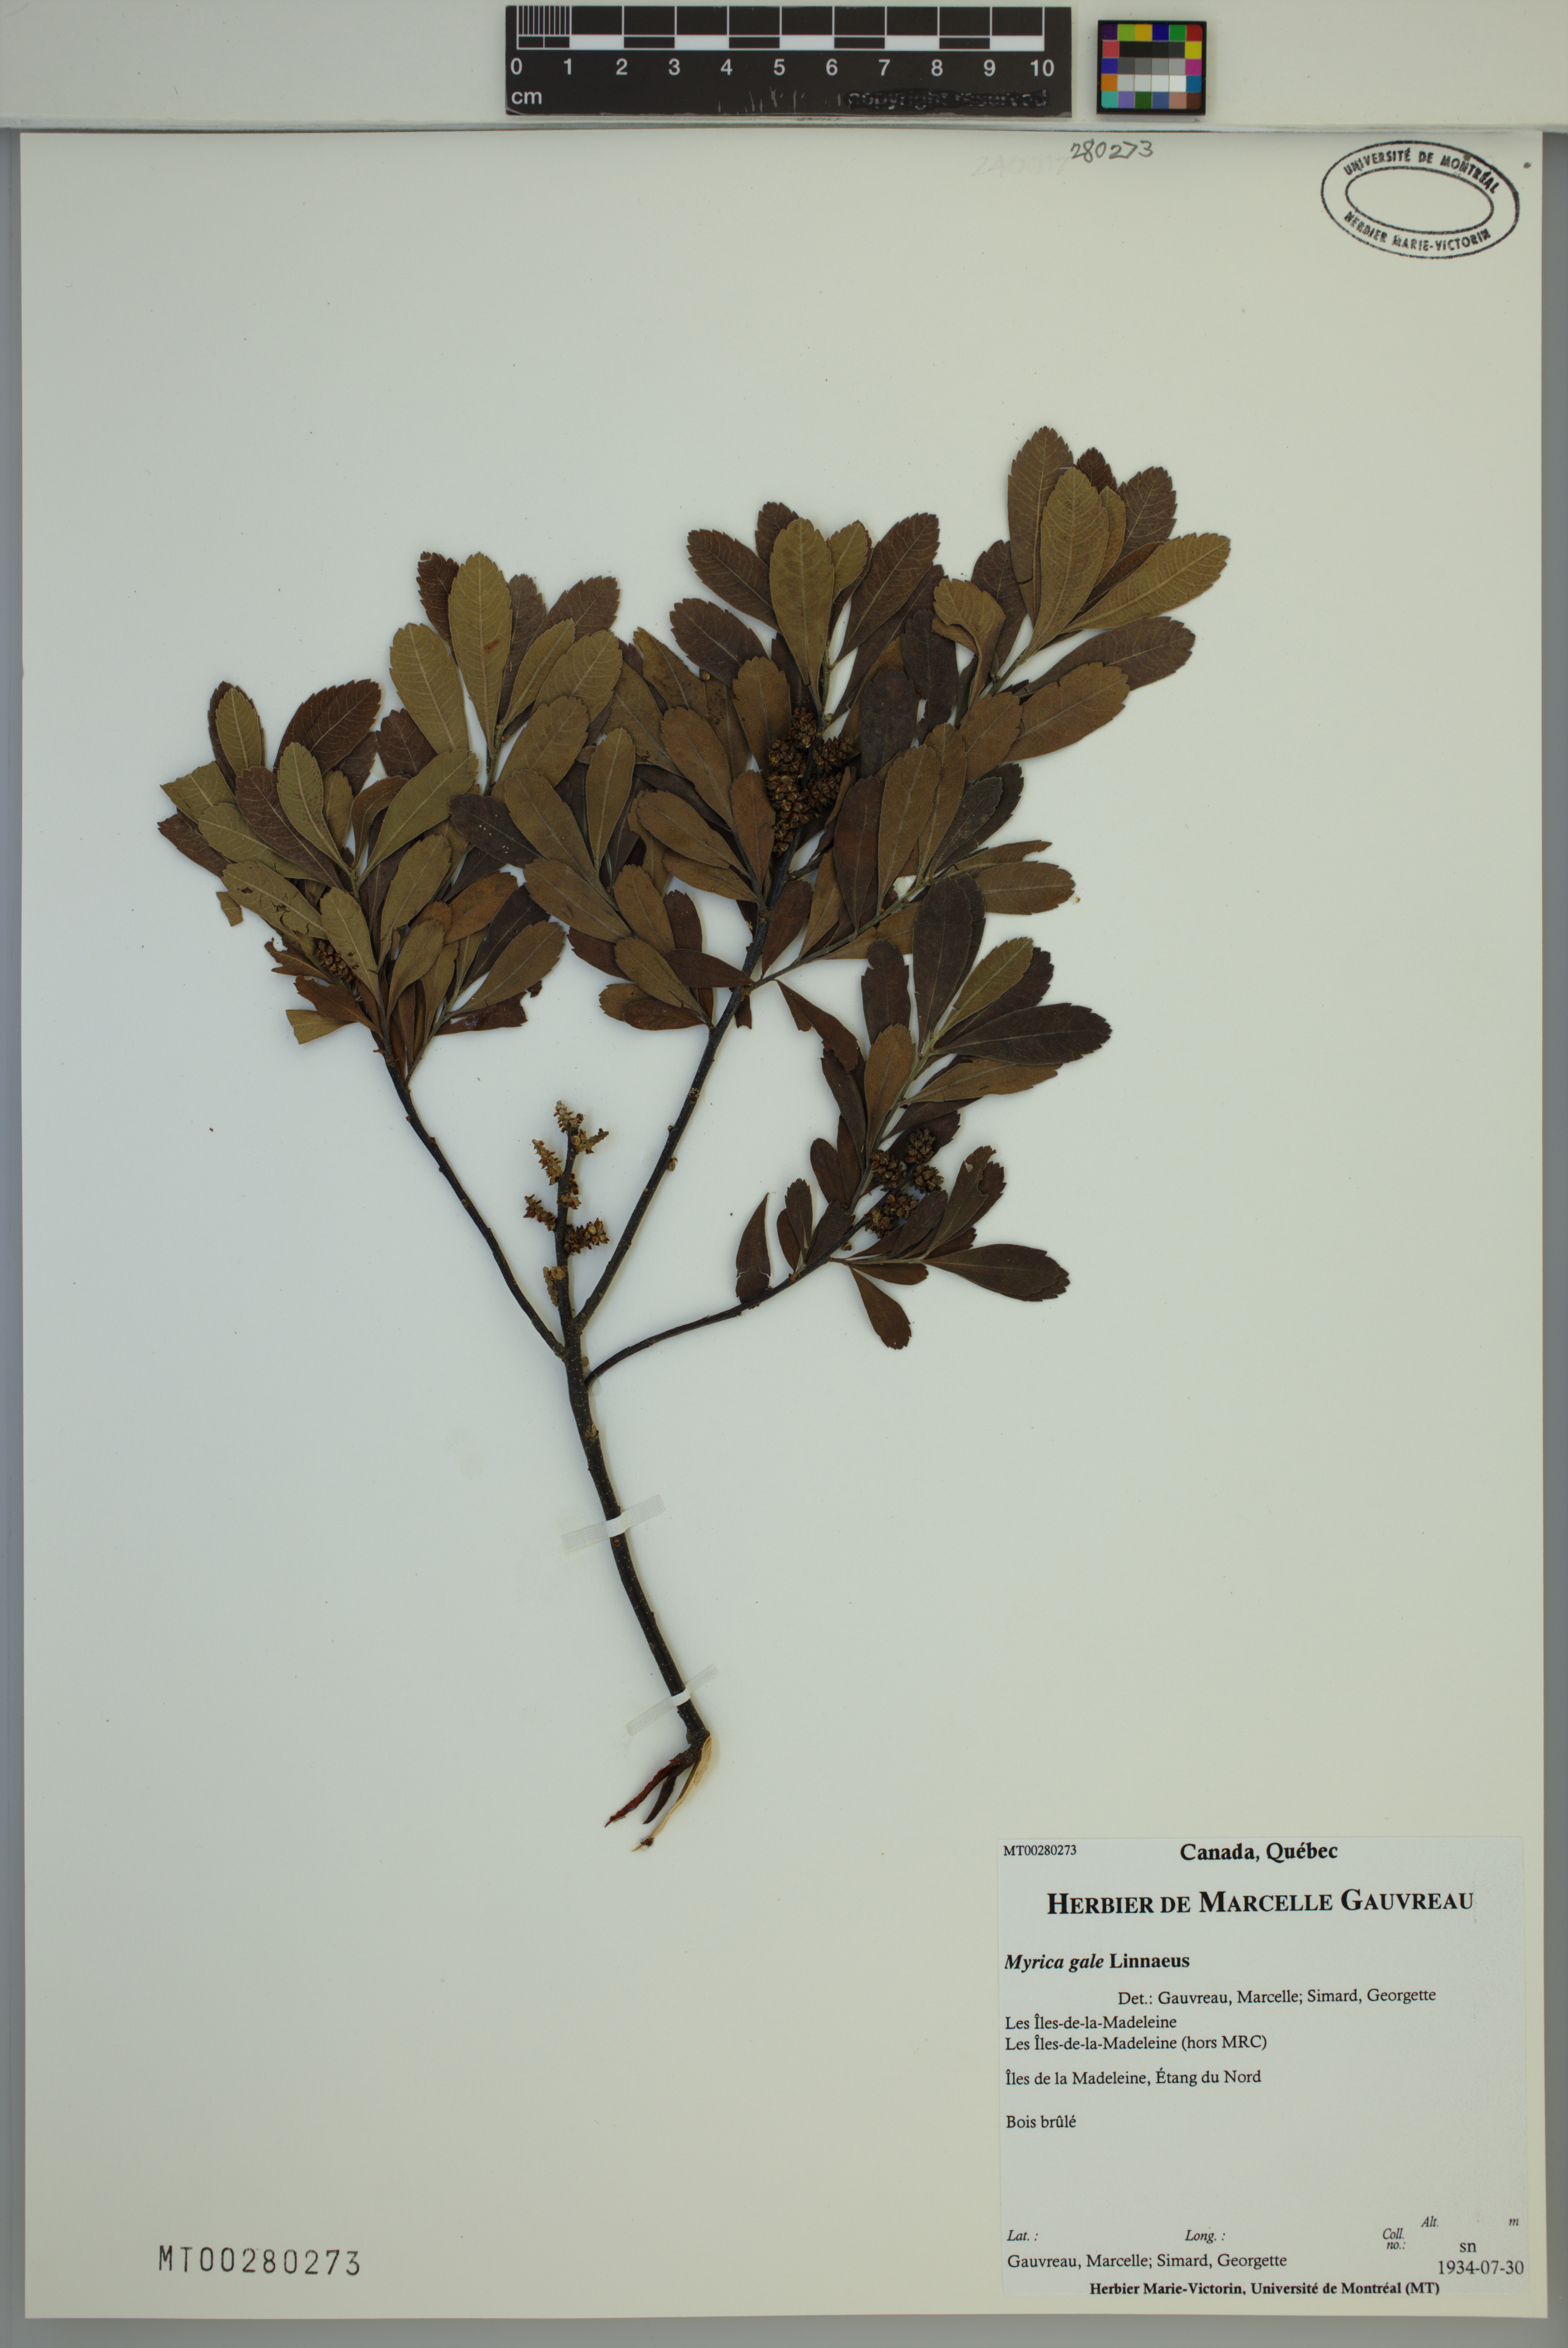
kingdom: Plantae
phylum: Tracheophyta
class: Magnoliopsida
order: Fagales
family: Myricaceae
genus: Myrica
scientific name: Myrica gale
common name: Sweet gale
